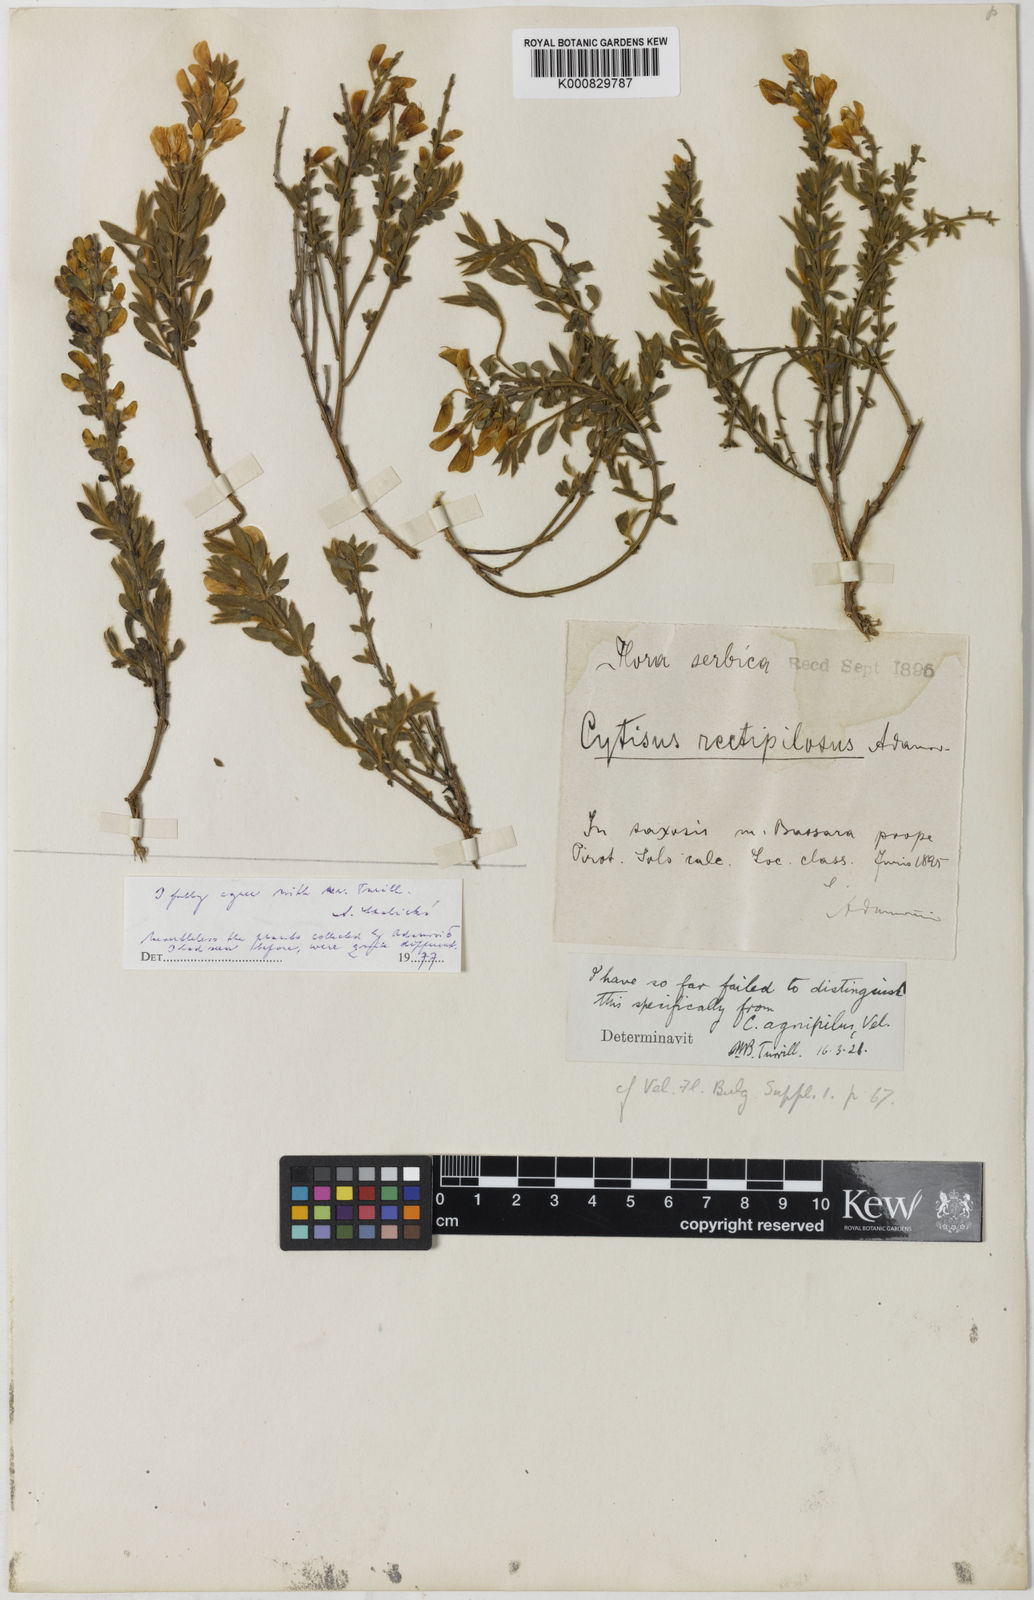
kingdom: Plantae
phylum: Tracheophyta
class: Magnoliopsida
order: Fabales
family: Fabaceae
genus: Cytisus
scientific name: Cytisus agnipilus
